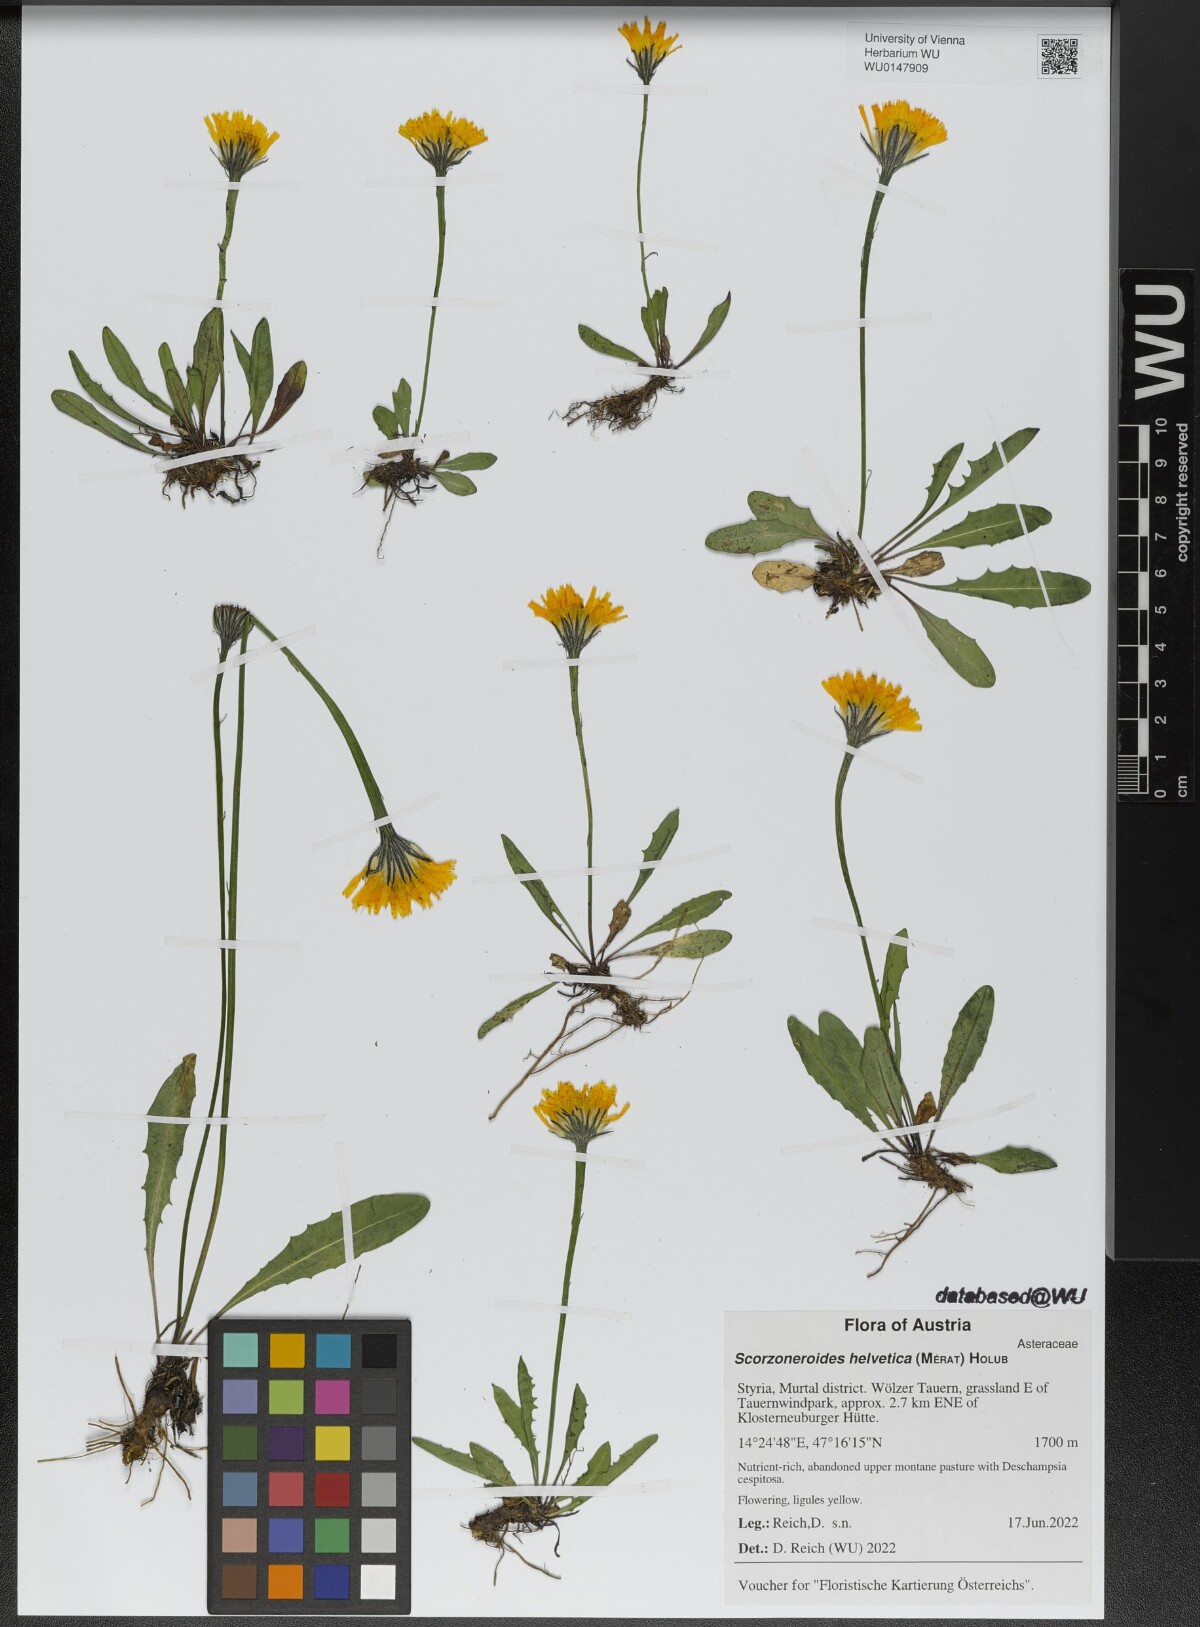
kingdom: Plantae
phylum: Tracheophyta
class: Magnoliopsida
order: Asterales
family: Asteraceae
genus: Scorzoneroides
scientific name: Scorzoneroides helvetica
